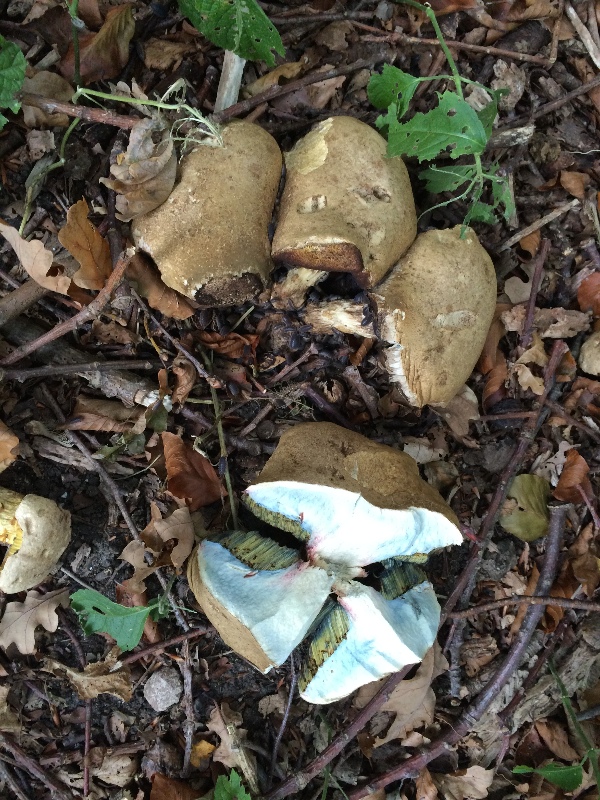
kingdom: Fungi
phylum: Basidiomycota
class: Agaricomycetes
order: Boletales
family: Boletaceae
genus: Caloboletus
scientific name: Caloboletus radicans
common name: rod-rørhat
